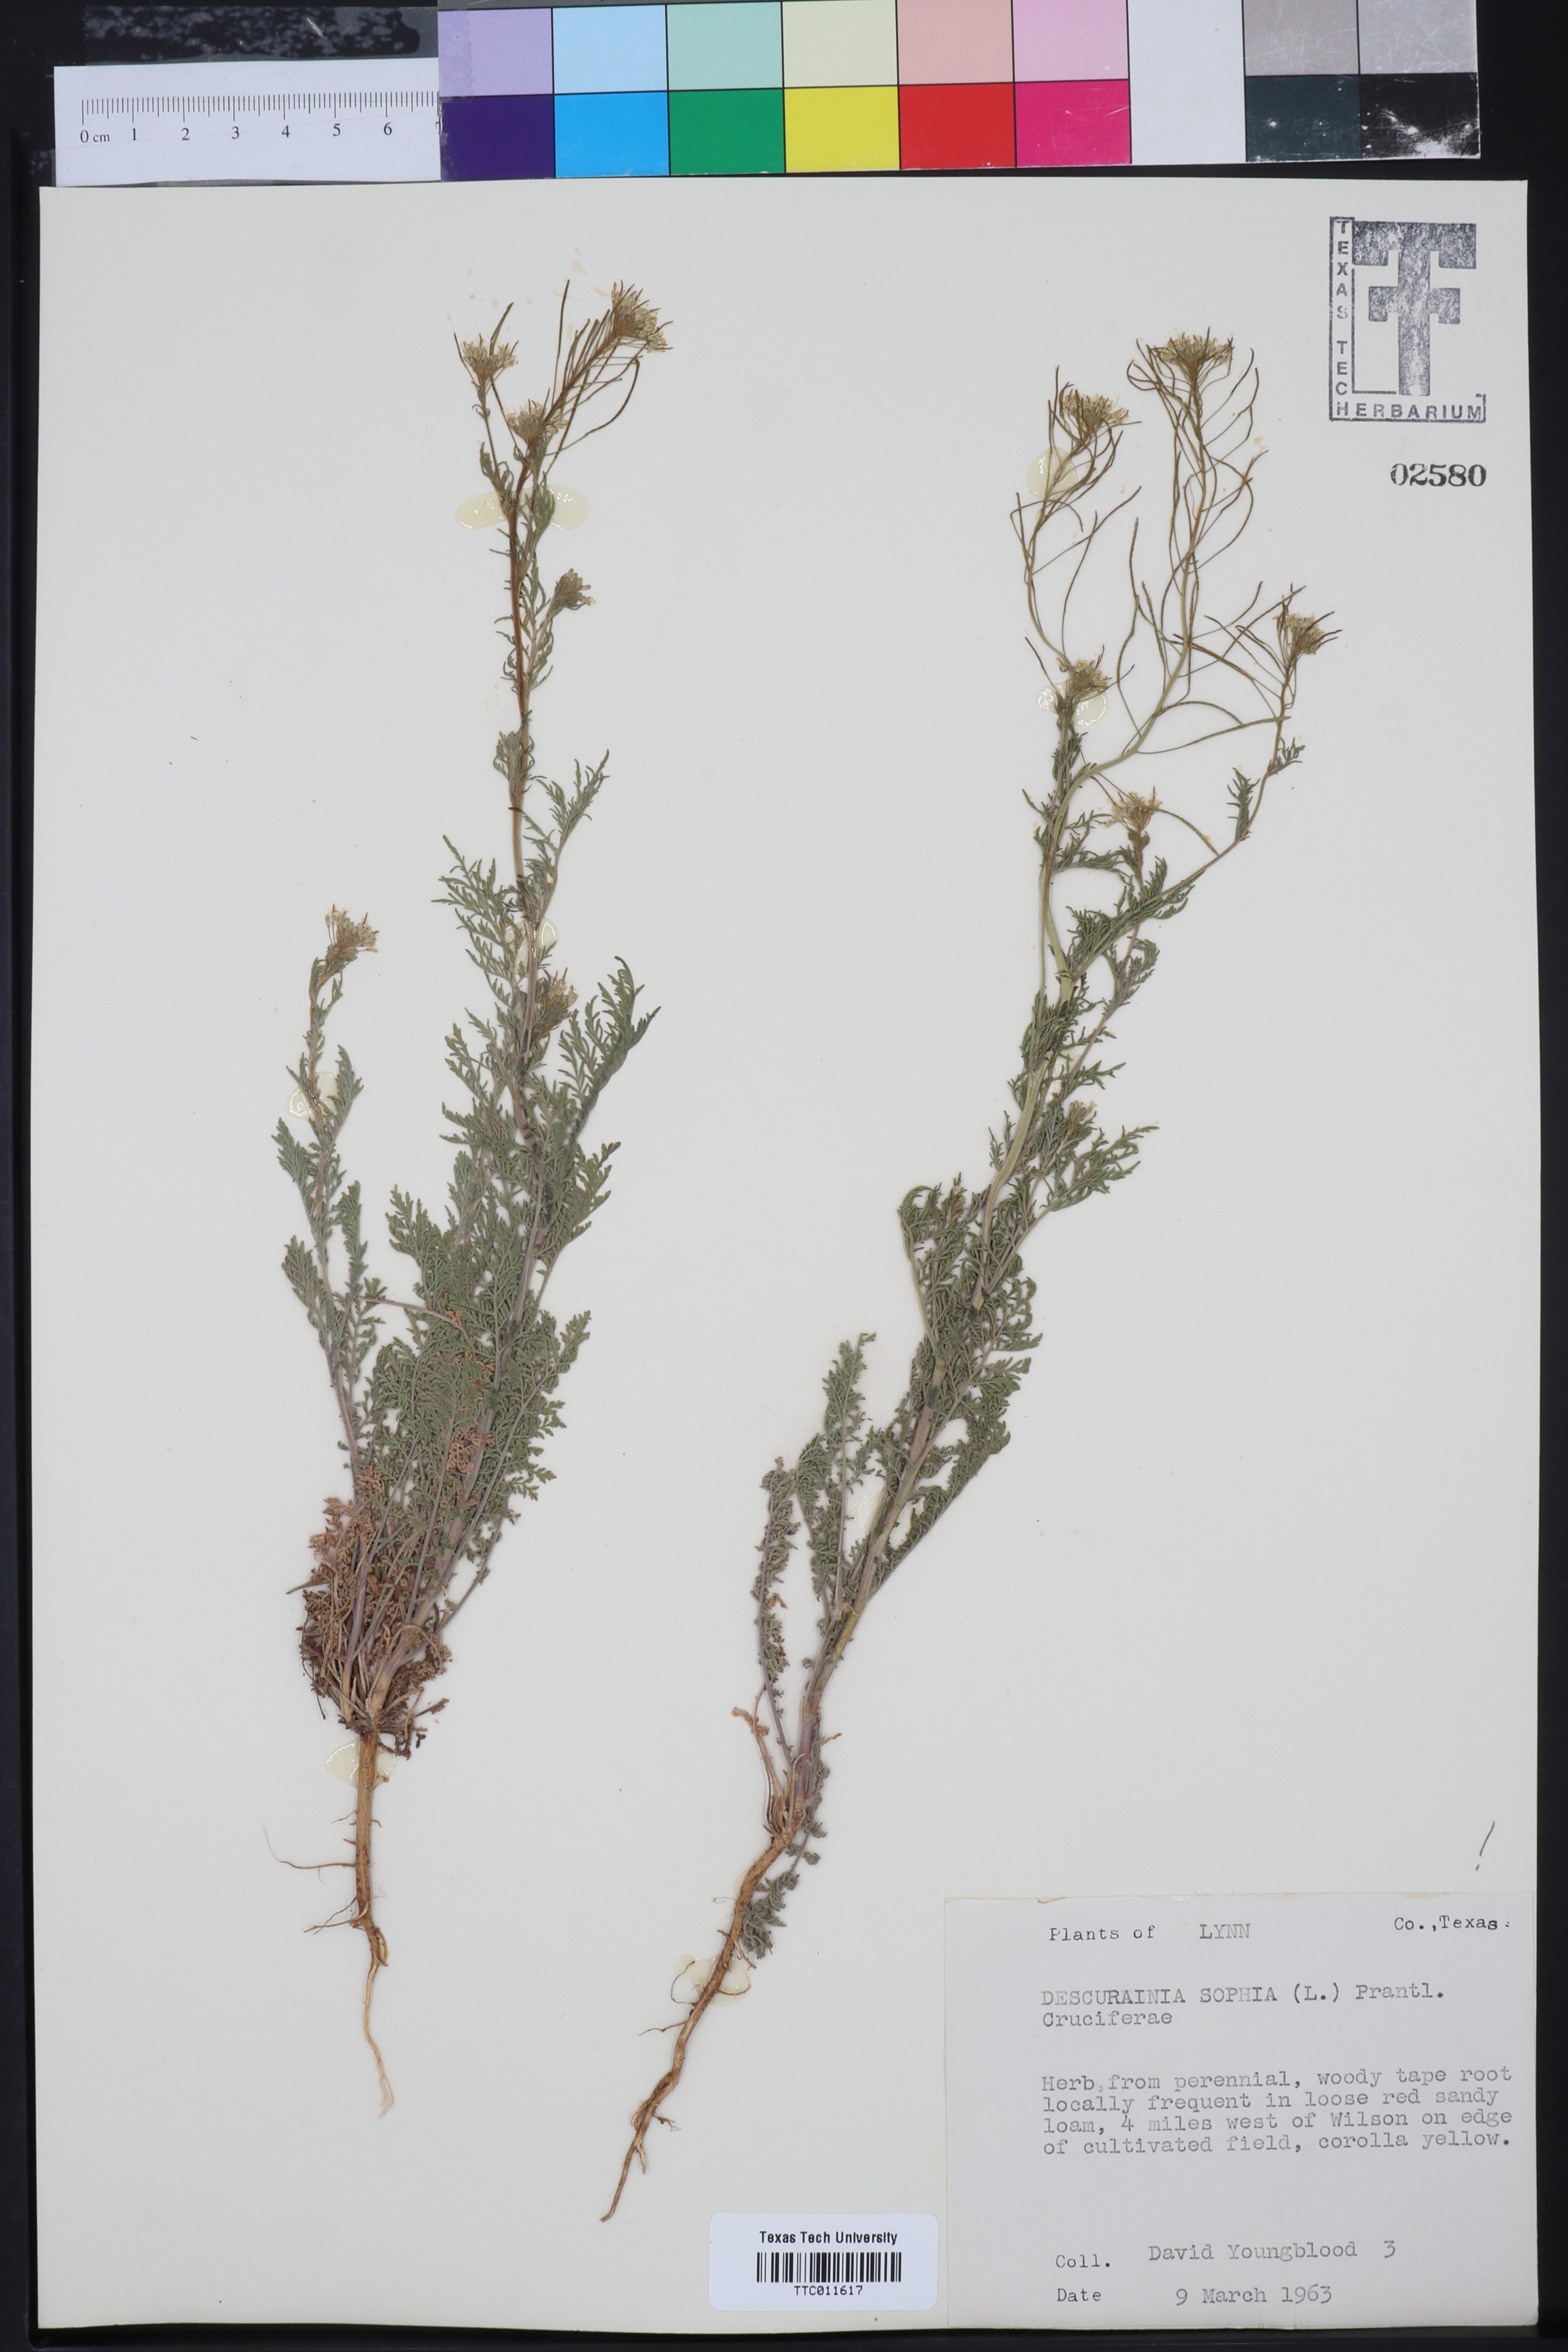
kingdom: Plantae
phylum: Tracheophyta
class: Magnoliopsida
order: Brassicales
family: Brassicaceae
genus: Descurainia
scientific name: Descurainia sophia
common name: Flixweed
